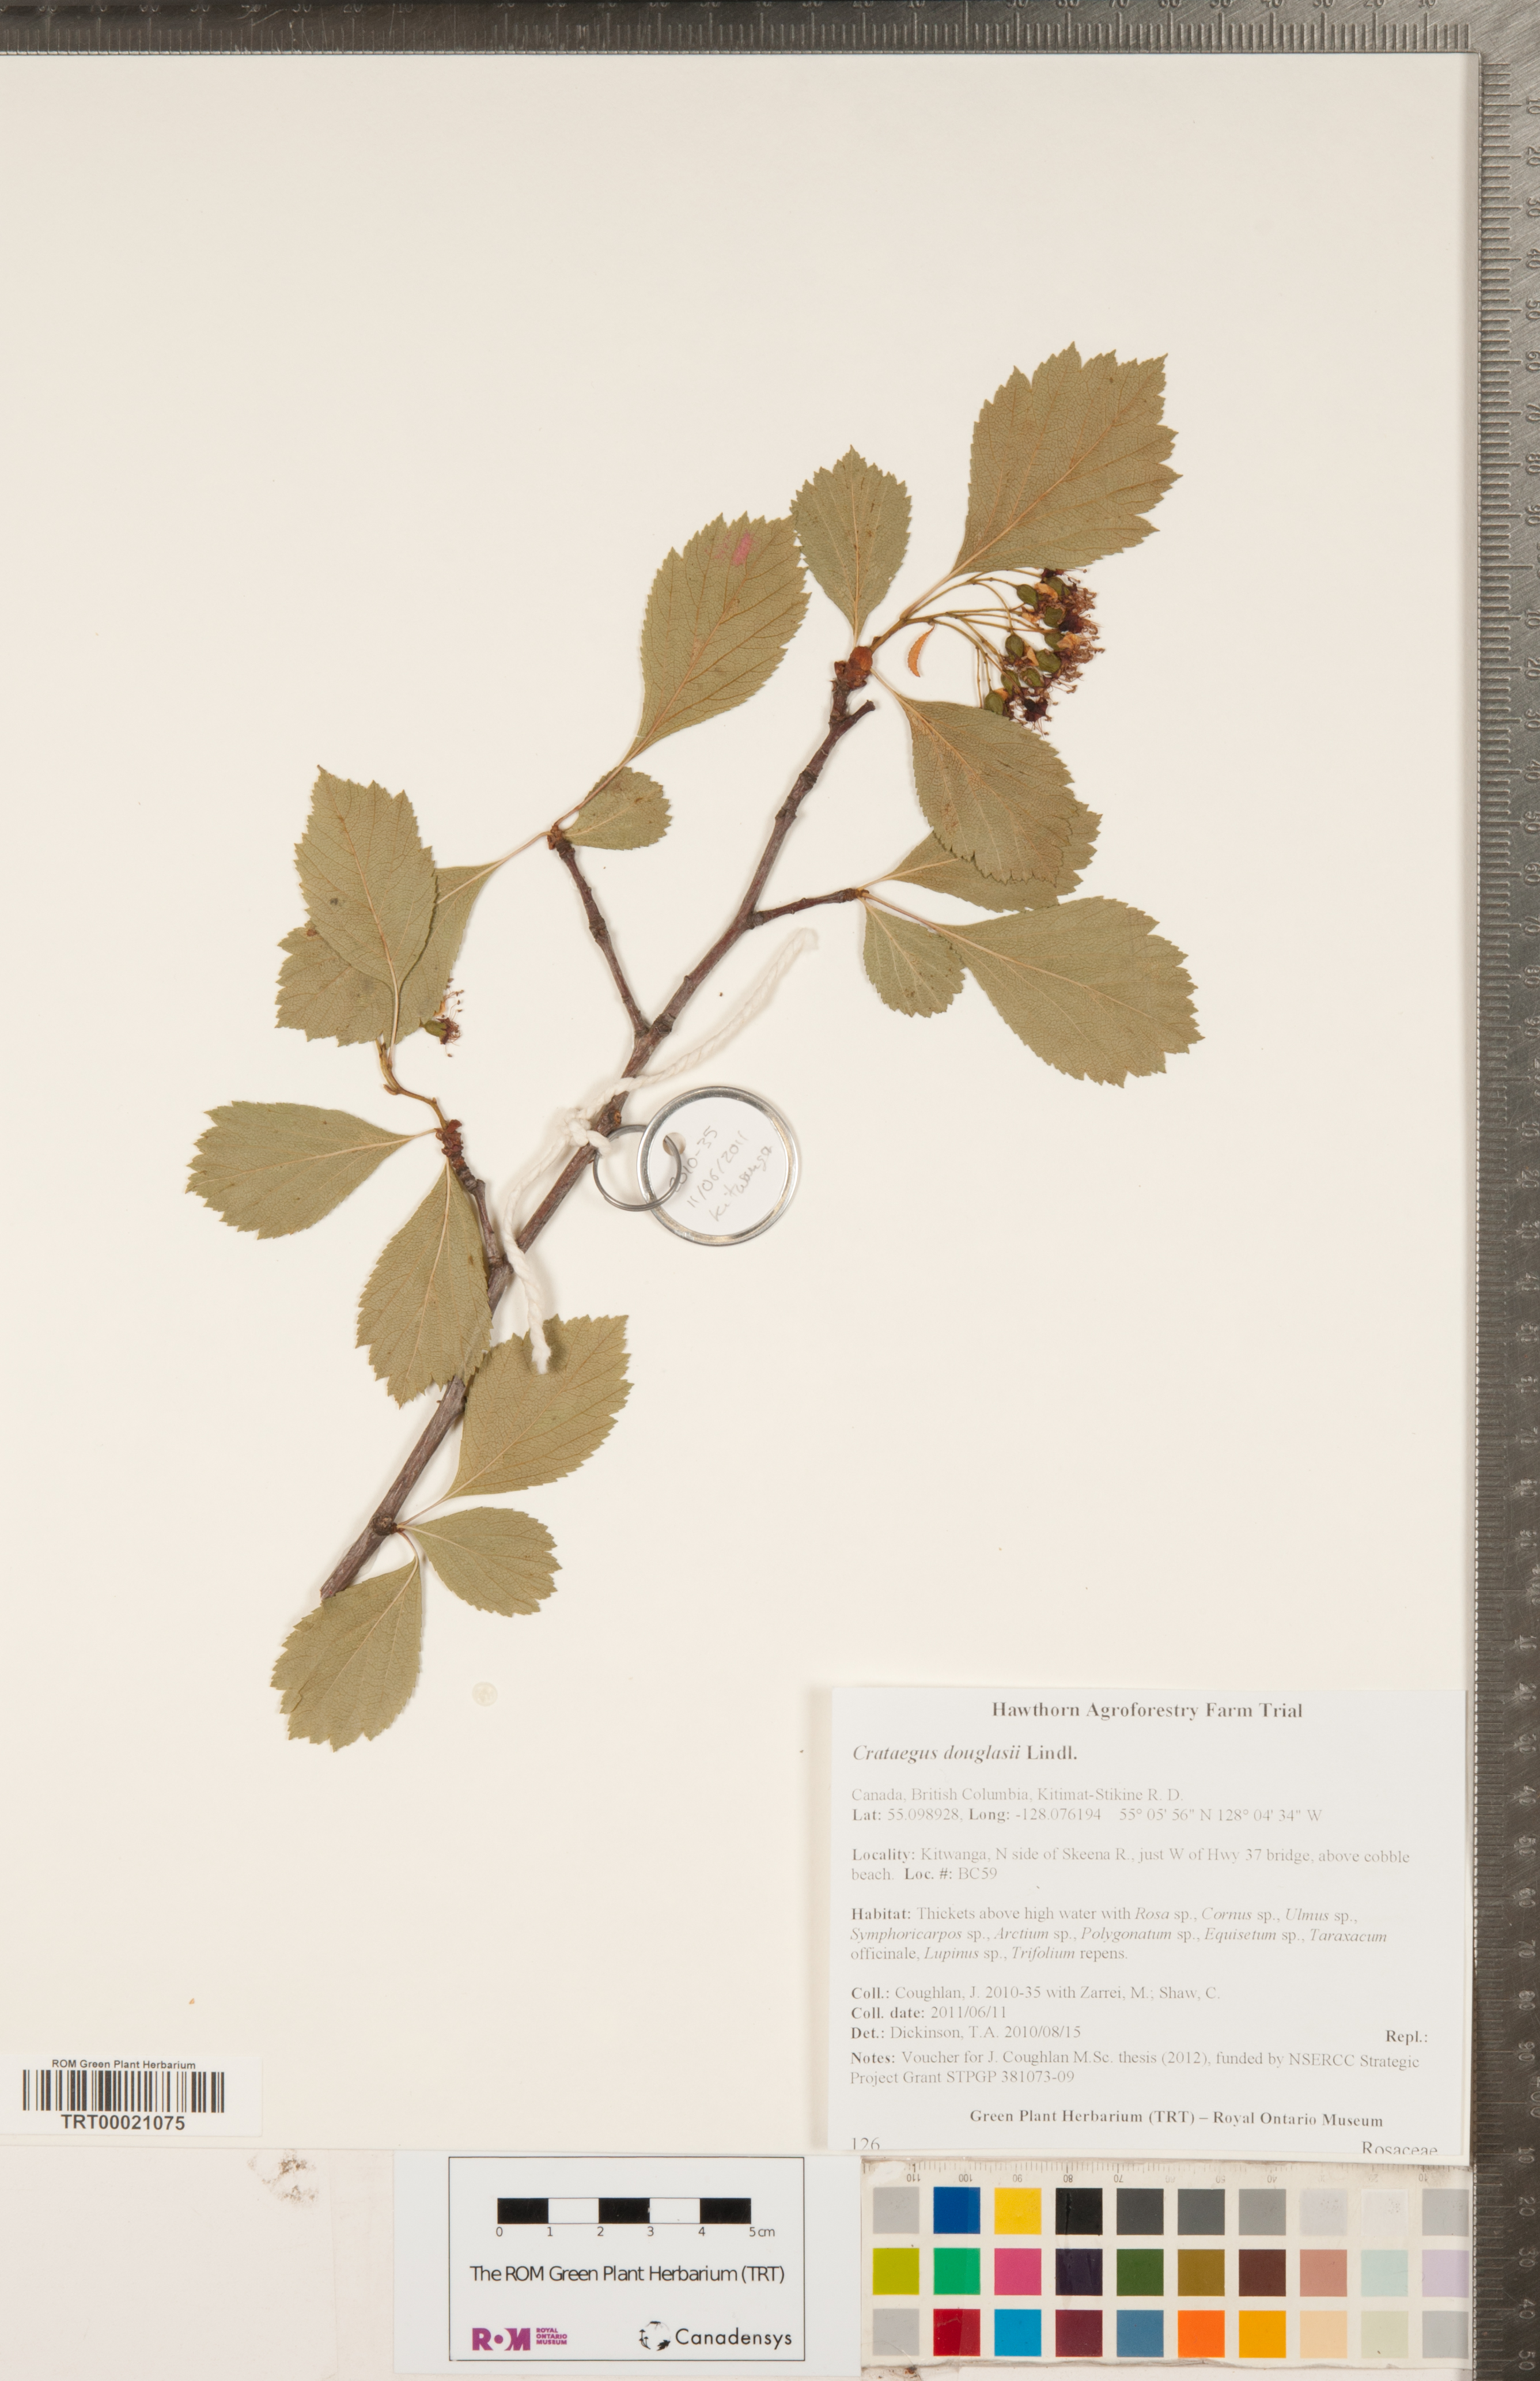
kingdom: Plantae
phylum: Tracheophyta
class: Magnoliopsida
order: Rosales
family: Rosaceae
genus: Crataegus
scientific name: Crataegus douglasii
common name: Black hawthorn
